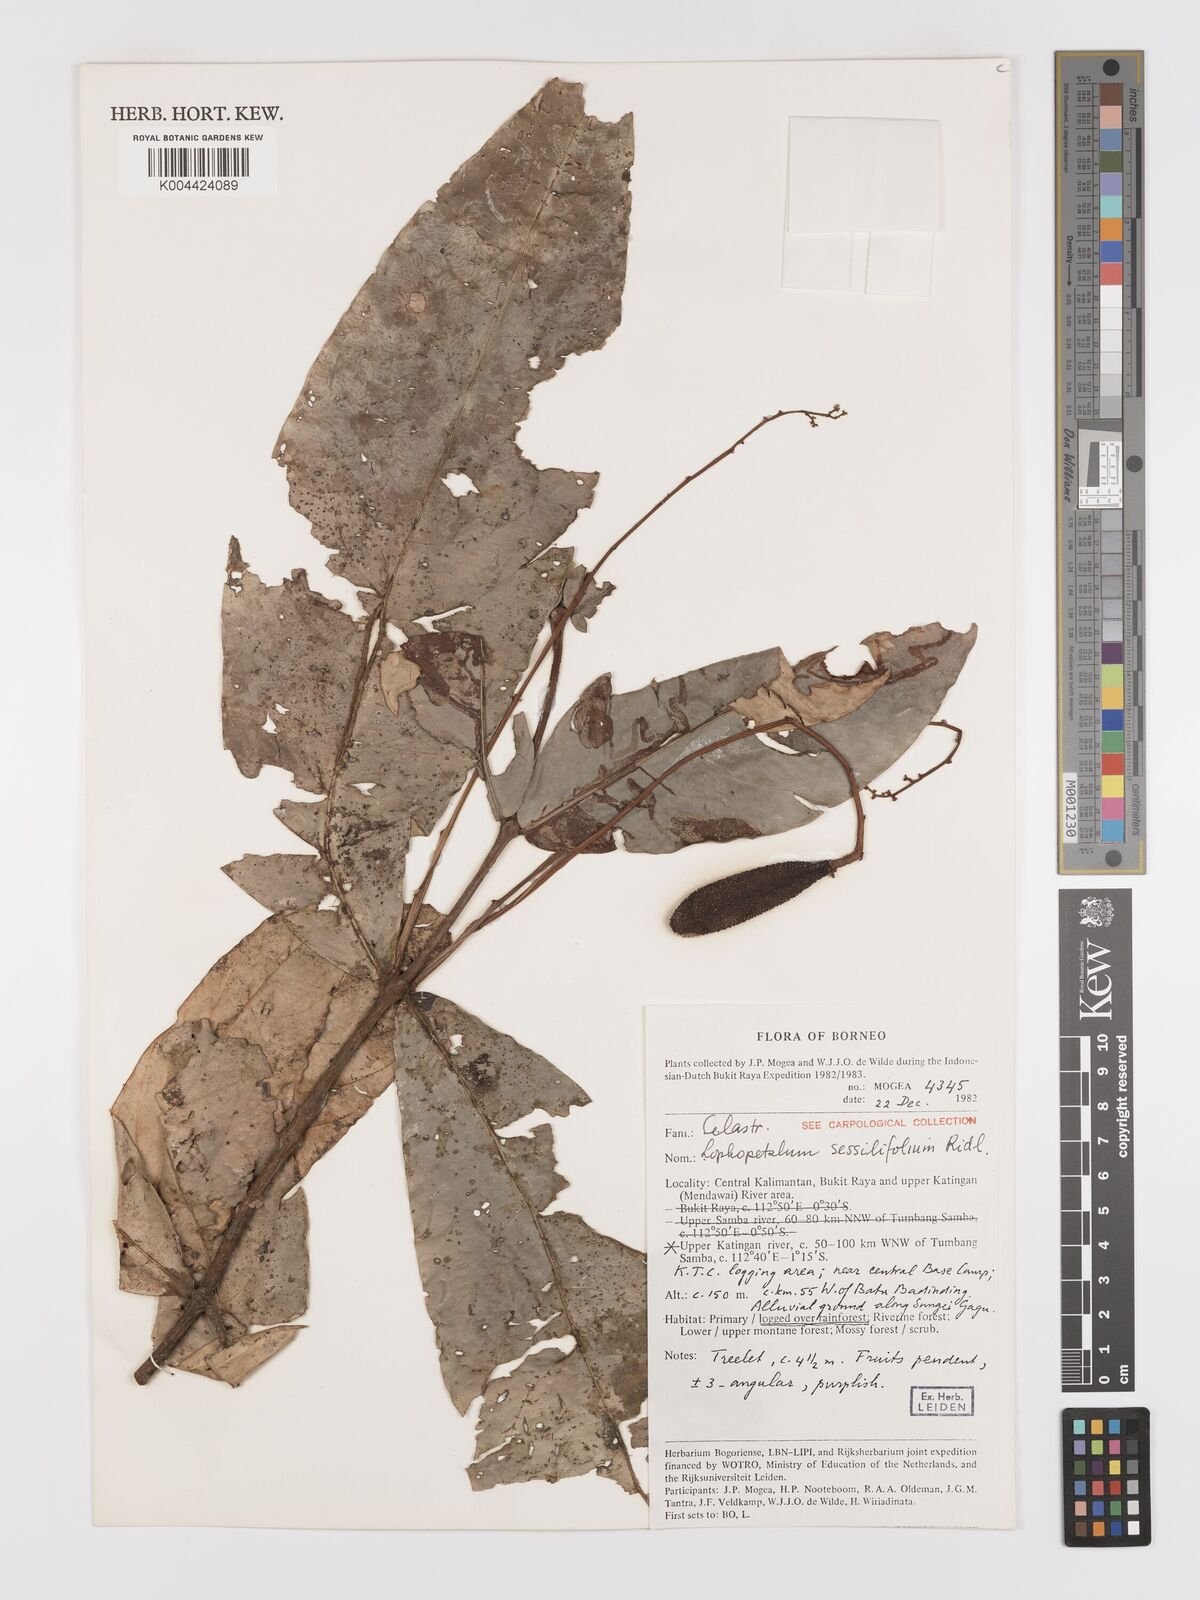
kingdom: Plantae
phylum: Tracheophyta
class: Magnoliopsida
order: Celastrales
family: Celastraceae
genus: Lophopetalum
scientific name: Lophopetalum sessilifolium
